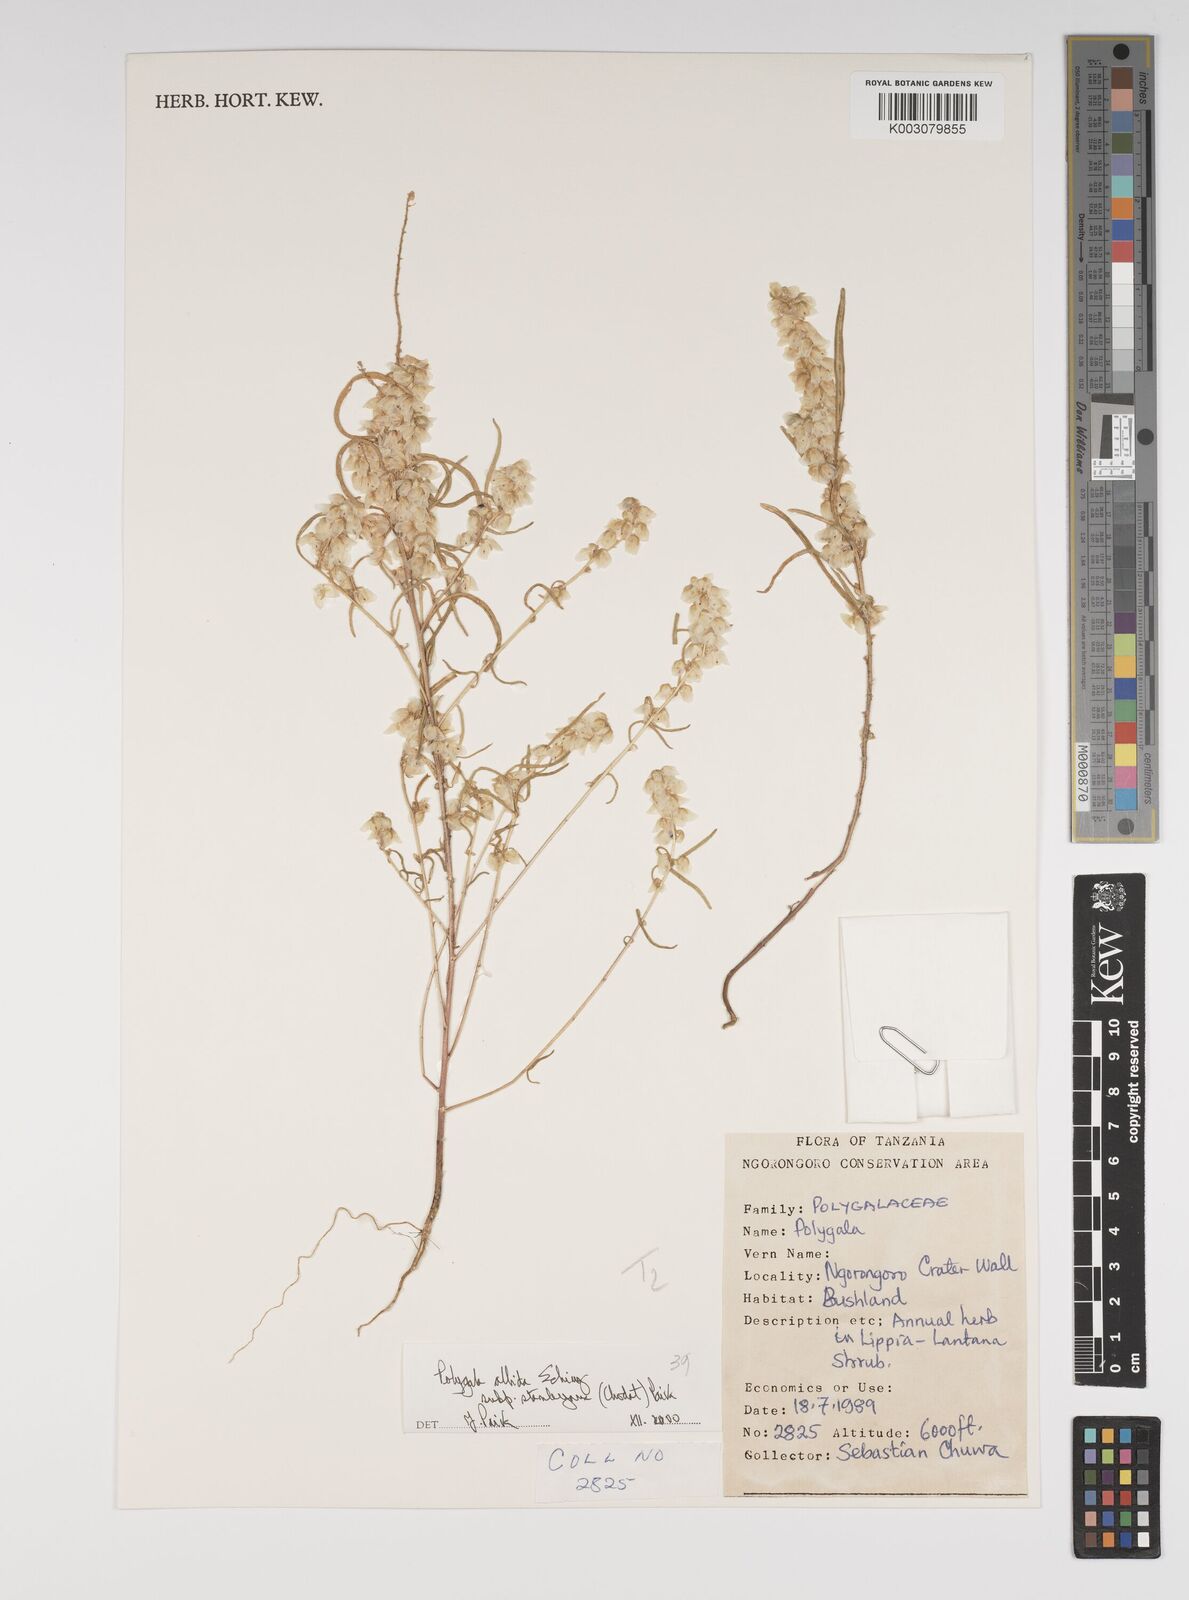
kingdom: Plantae
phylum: Tracheophyta
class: Magnoliopsida
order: Fabales
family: Polygalaceae
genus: Polygala
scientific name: Polygala albida
